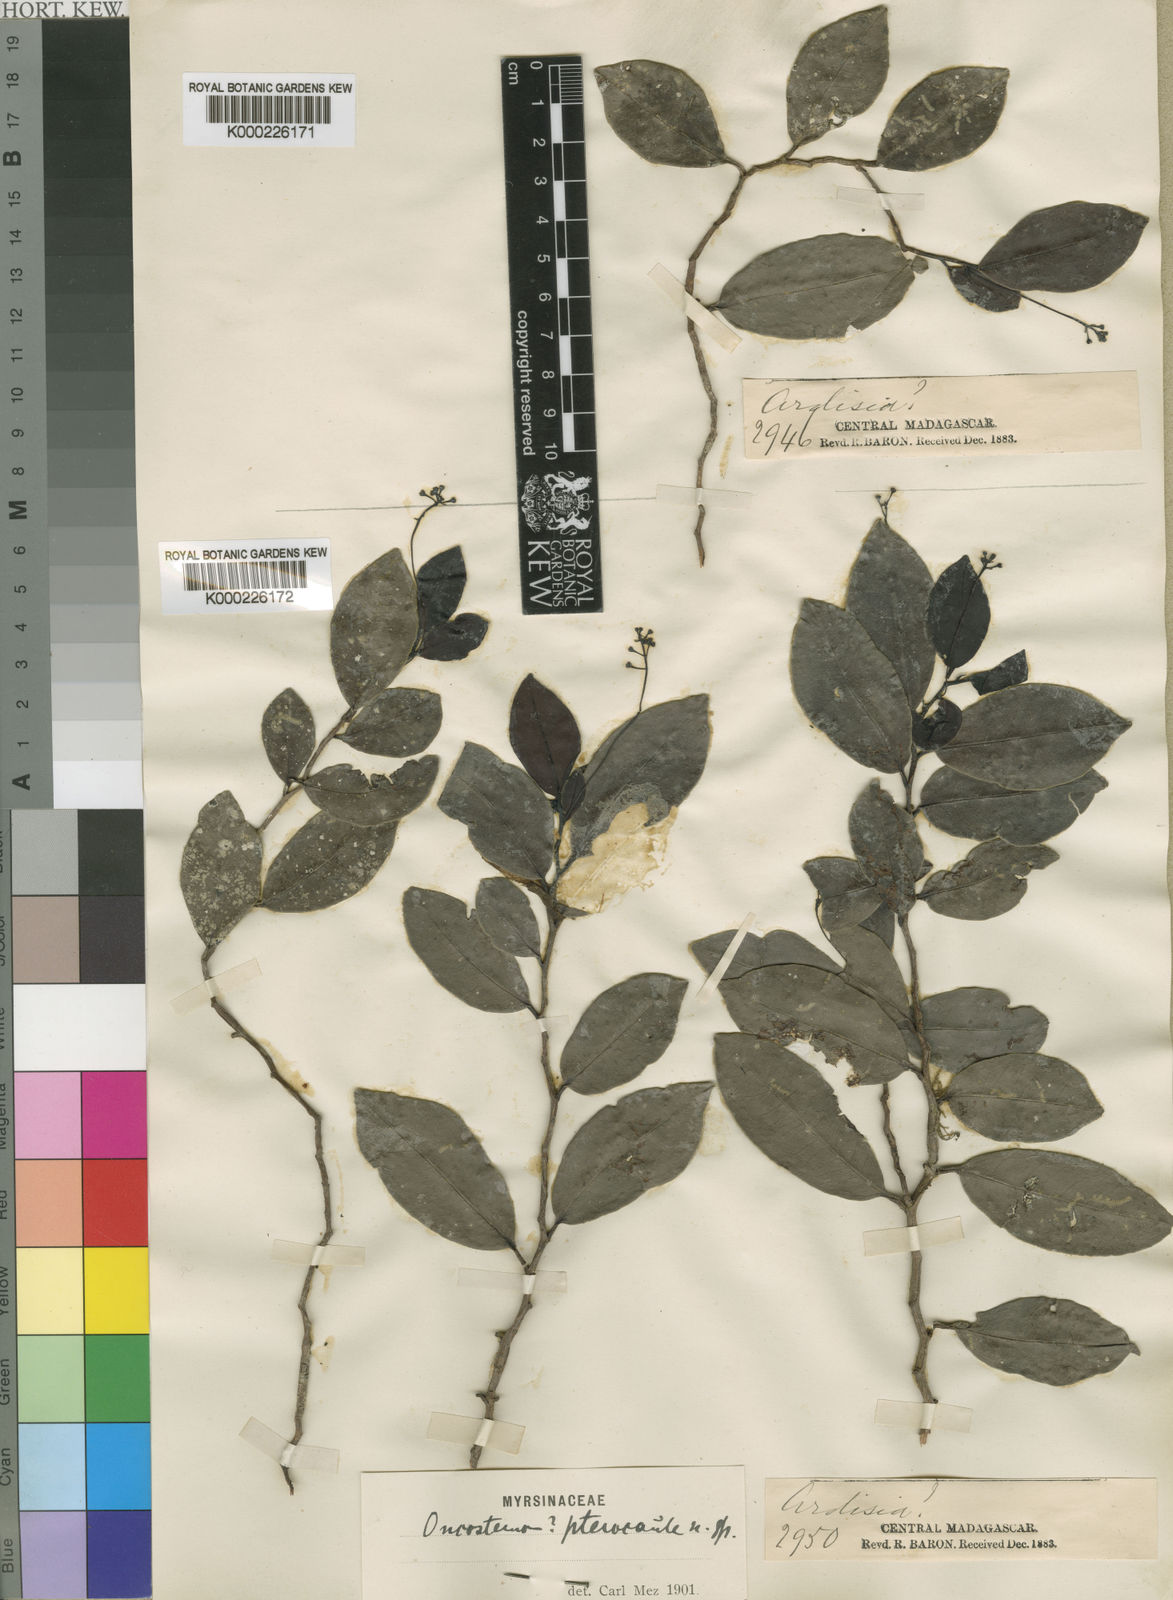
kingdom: Plantae
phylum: Tracheophyta
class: Magnoliopsida
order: Ericales
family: Primulaceae
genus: Oncostemum
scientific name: Oncostemum pterocaule
